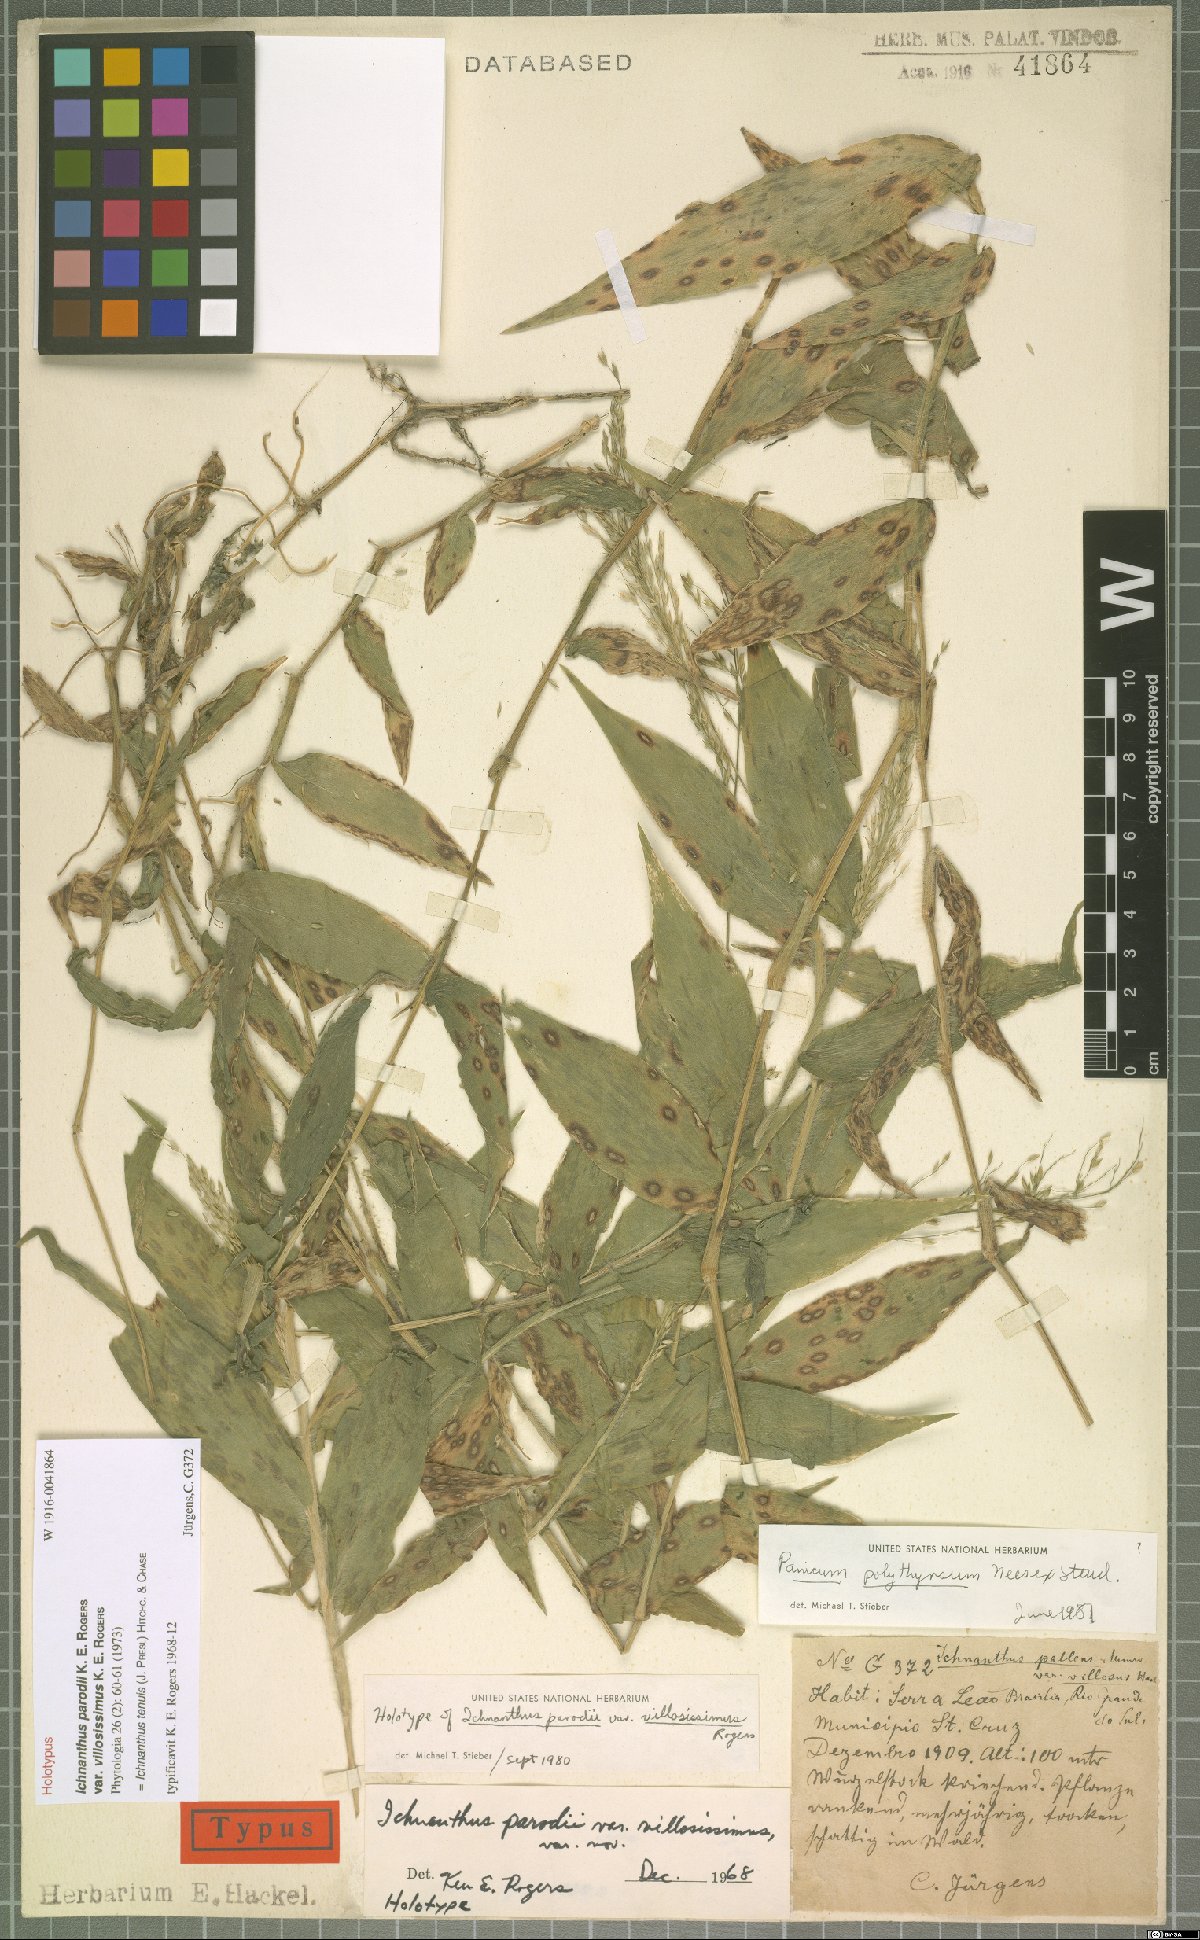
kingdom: Plantae
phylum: Tracheophyta
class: Liliopsida
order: Poales
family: Poaceae
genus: Ichnanthus
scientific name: Ichnanthus tenuis
